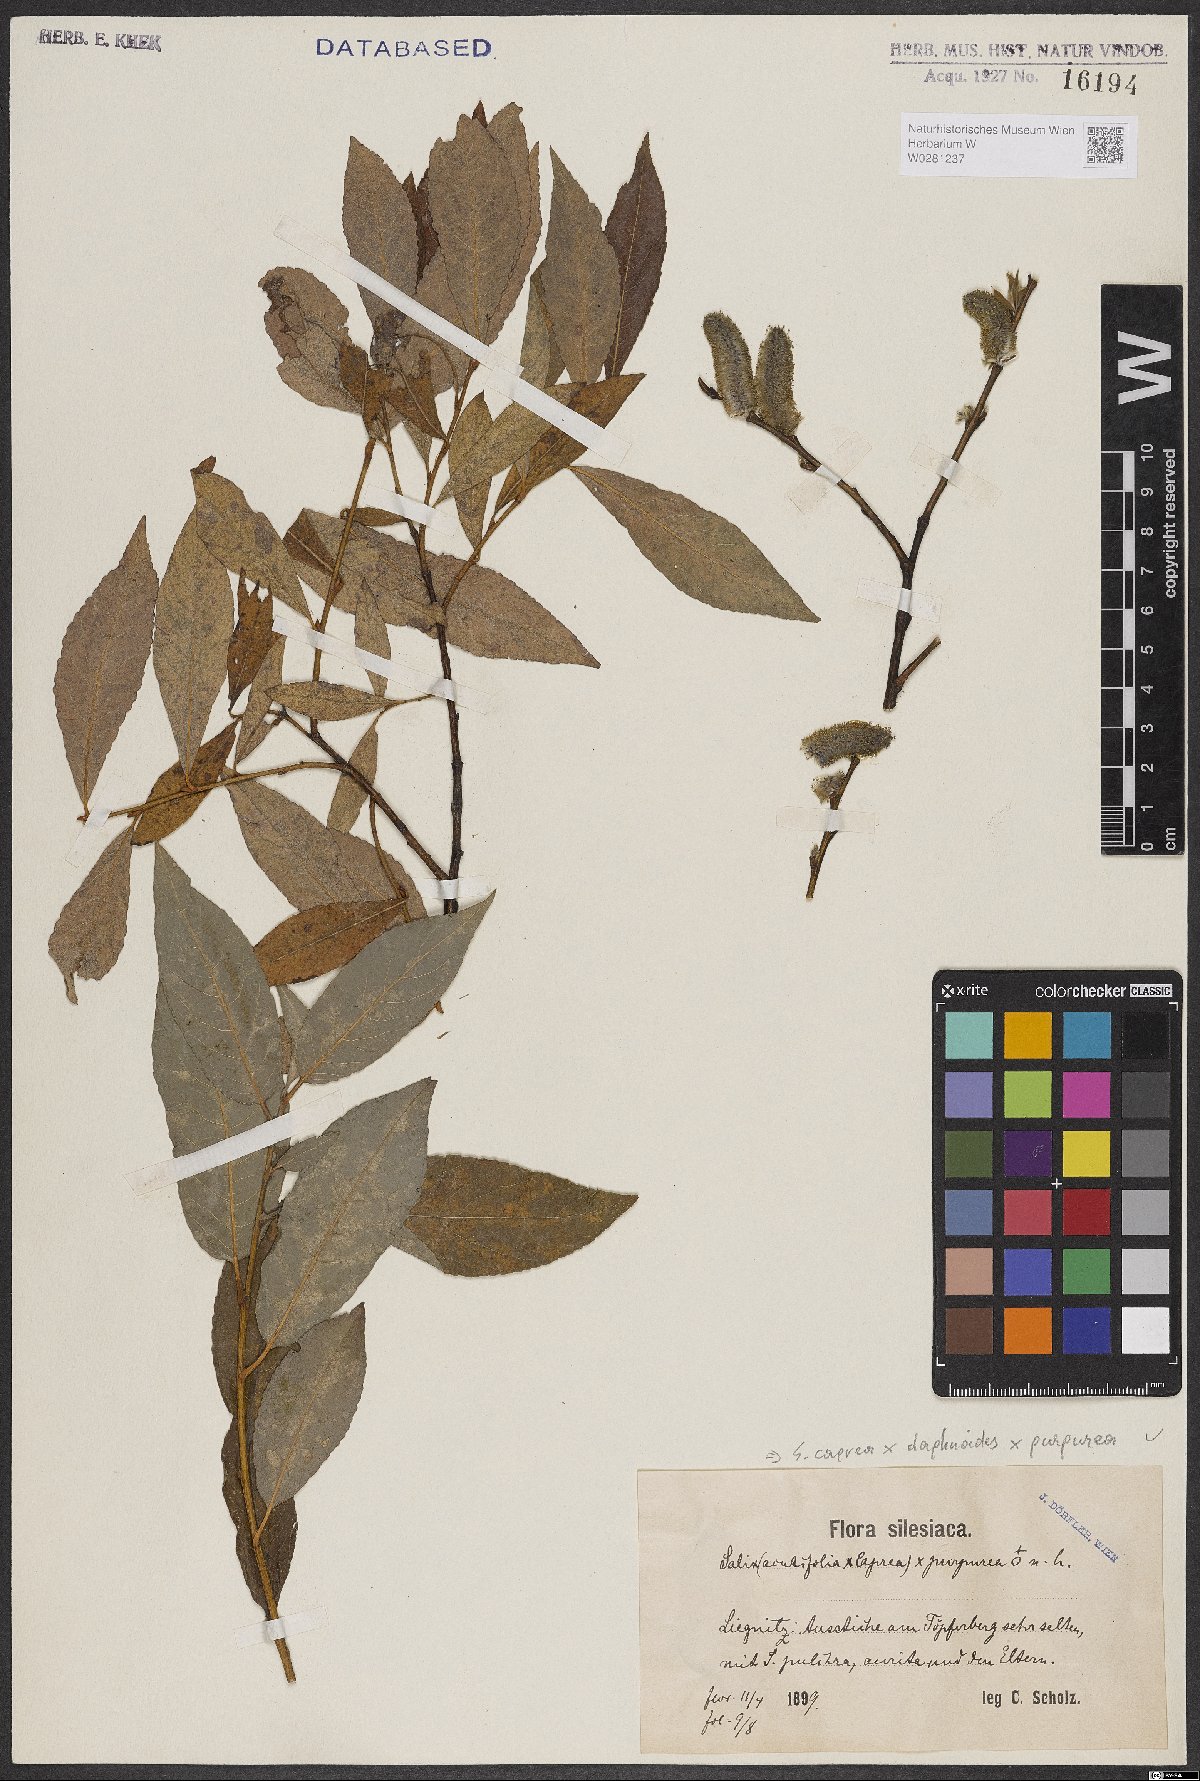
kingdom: Plantae
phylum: Tracheophyta
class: Magnoliopsida
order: Malpighiales
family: Salicaceae
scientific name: Salicaceae
